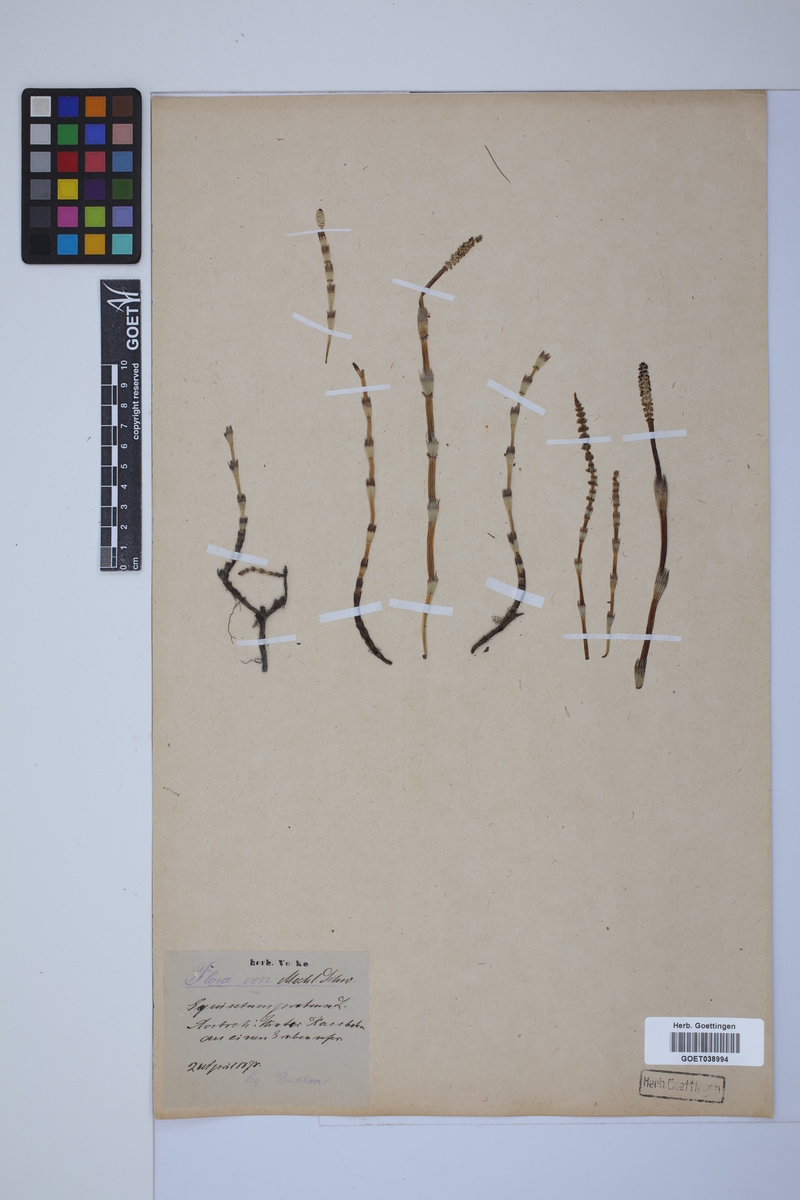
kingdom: Plantae
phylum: Tracheophyta
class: Polypodiopsida
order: Equisetales
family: Equisetaceae
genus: Equisetum
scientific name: Equisetum pratense
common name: Meadow horsetail
